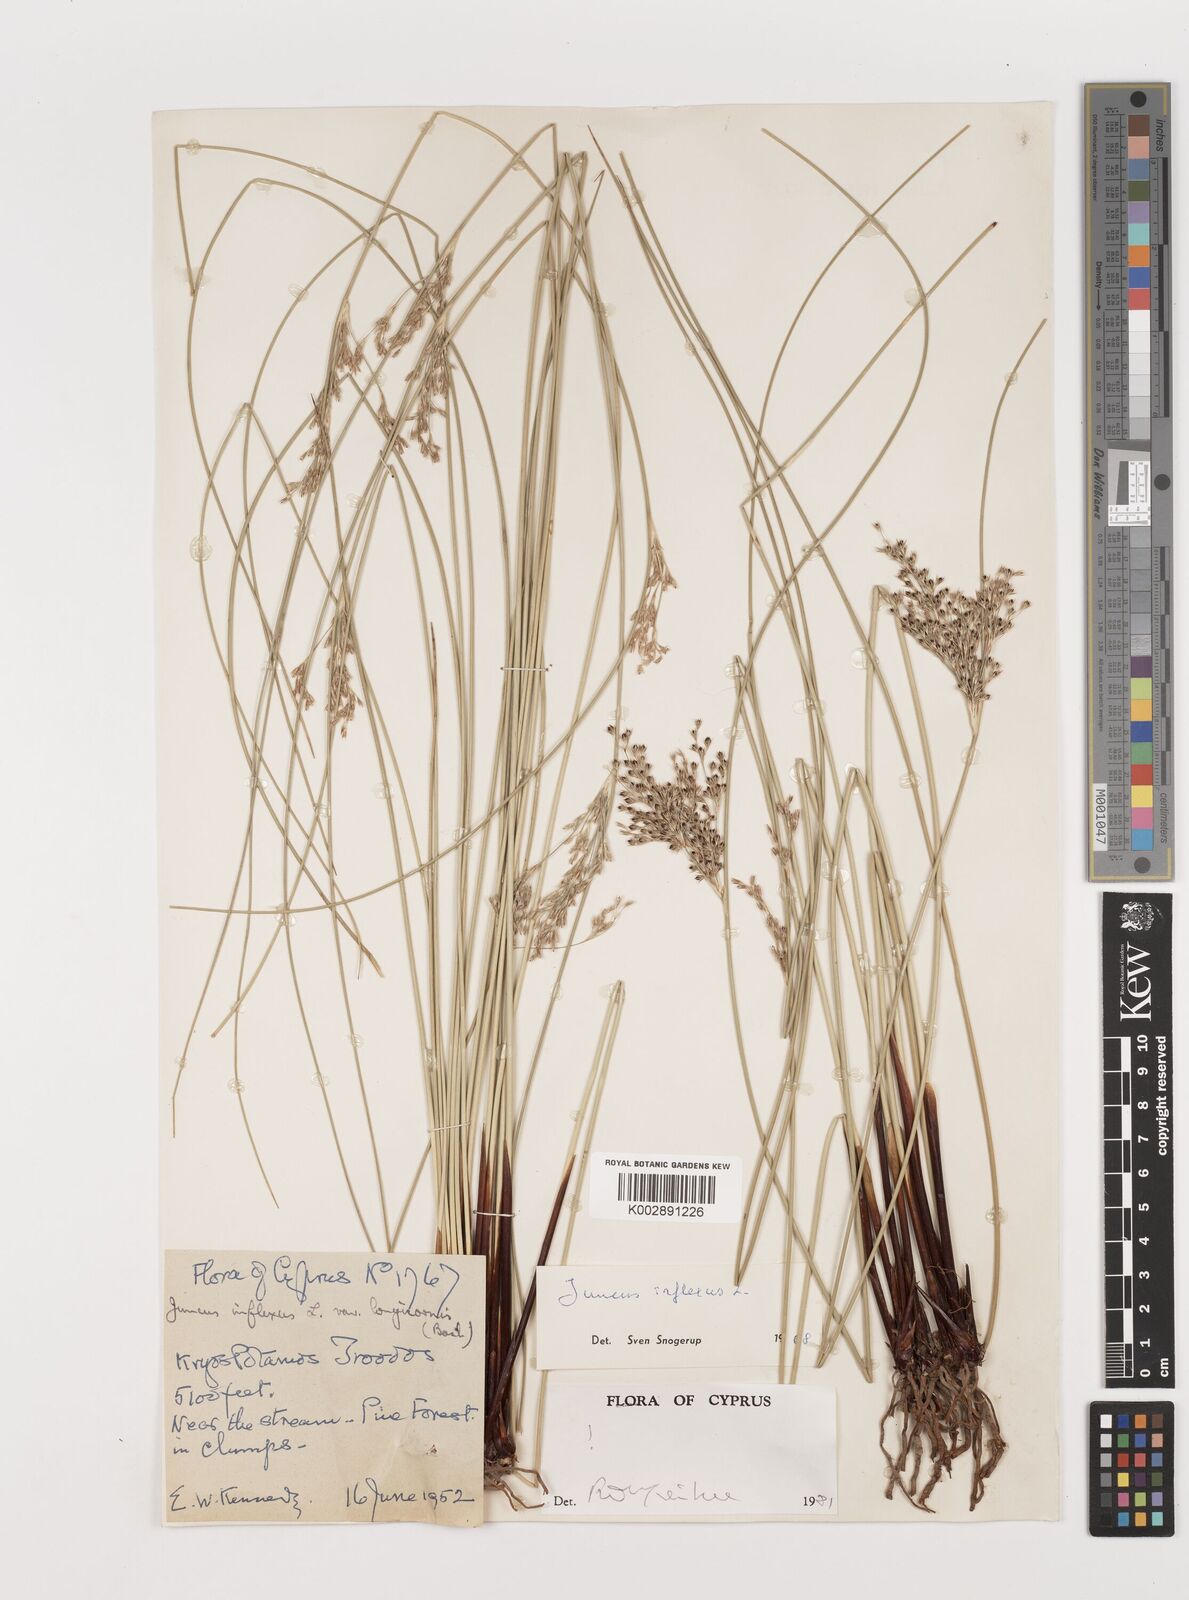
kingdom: Plantae
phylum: Tracheophyta
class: Liliopsida
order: Poales
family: Juncaceae
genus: Juncus
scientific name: Juncus inflexus
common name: Hard rush
